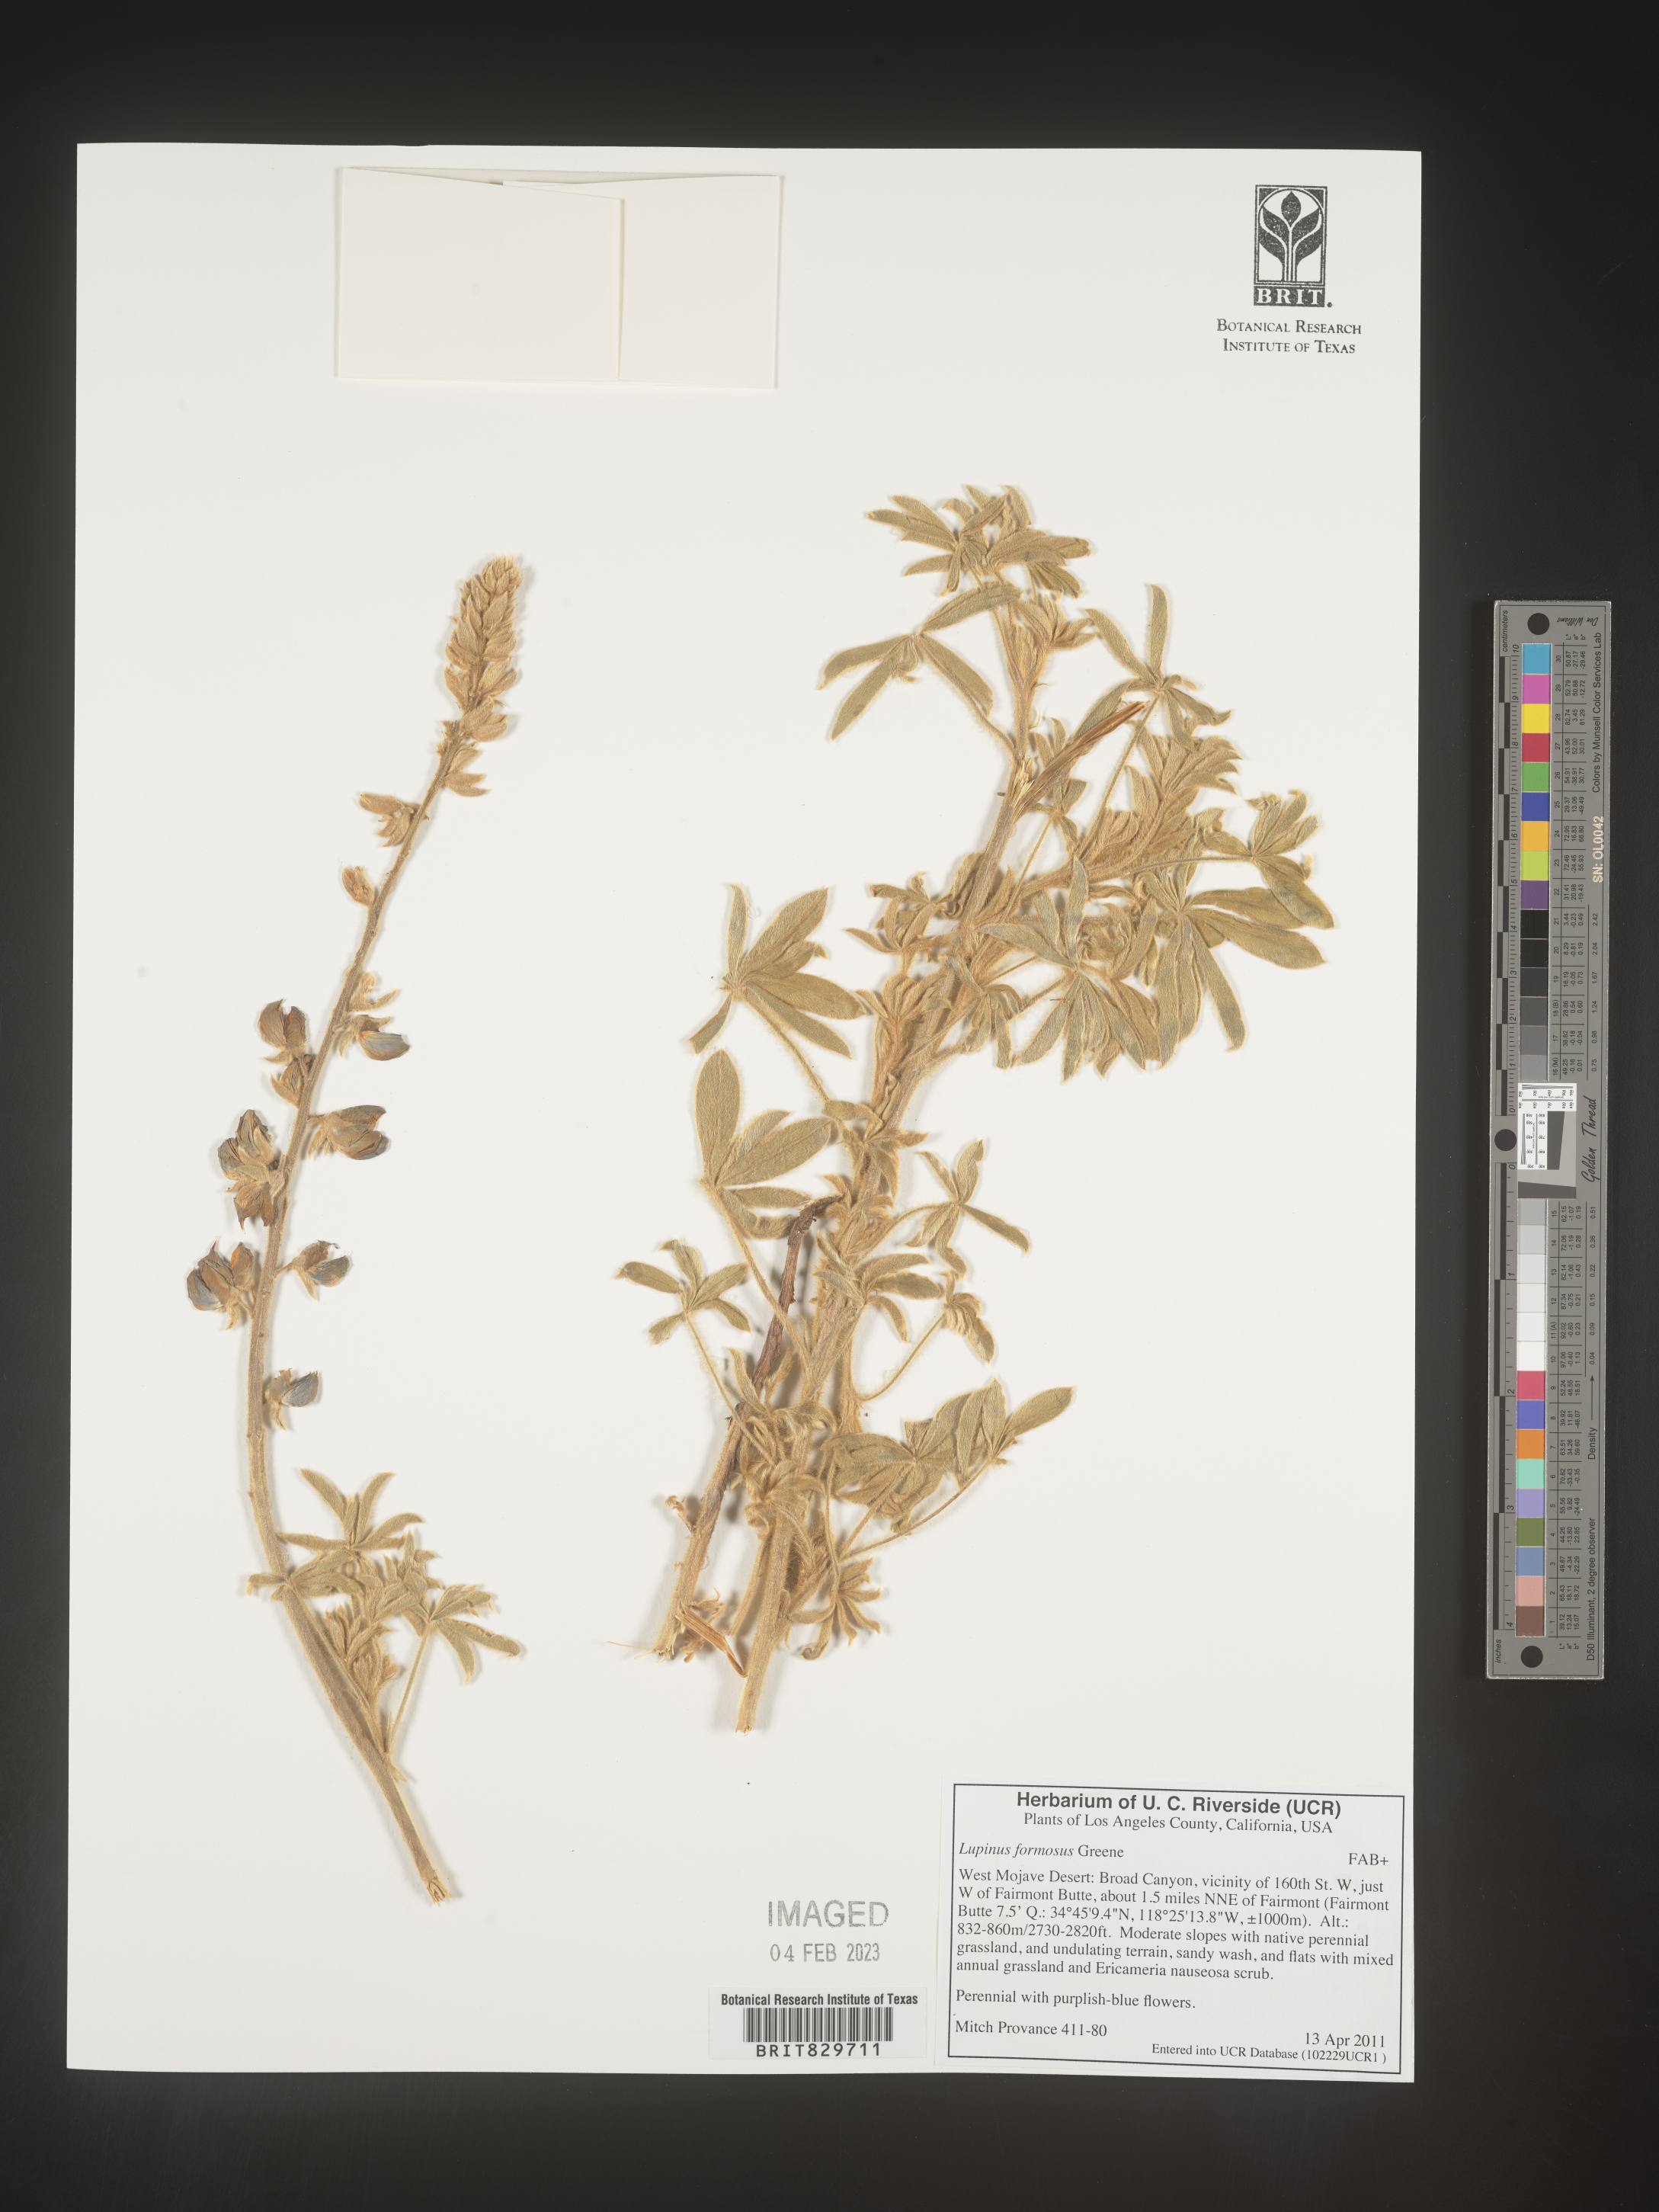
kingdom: Plantae
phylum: Tracheophyta
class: Magnoliopsida
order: Fabales
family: Fabaceae
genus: Lupinus
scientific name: Lupinus formosus
